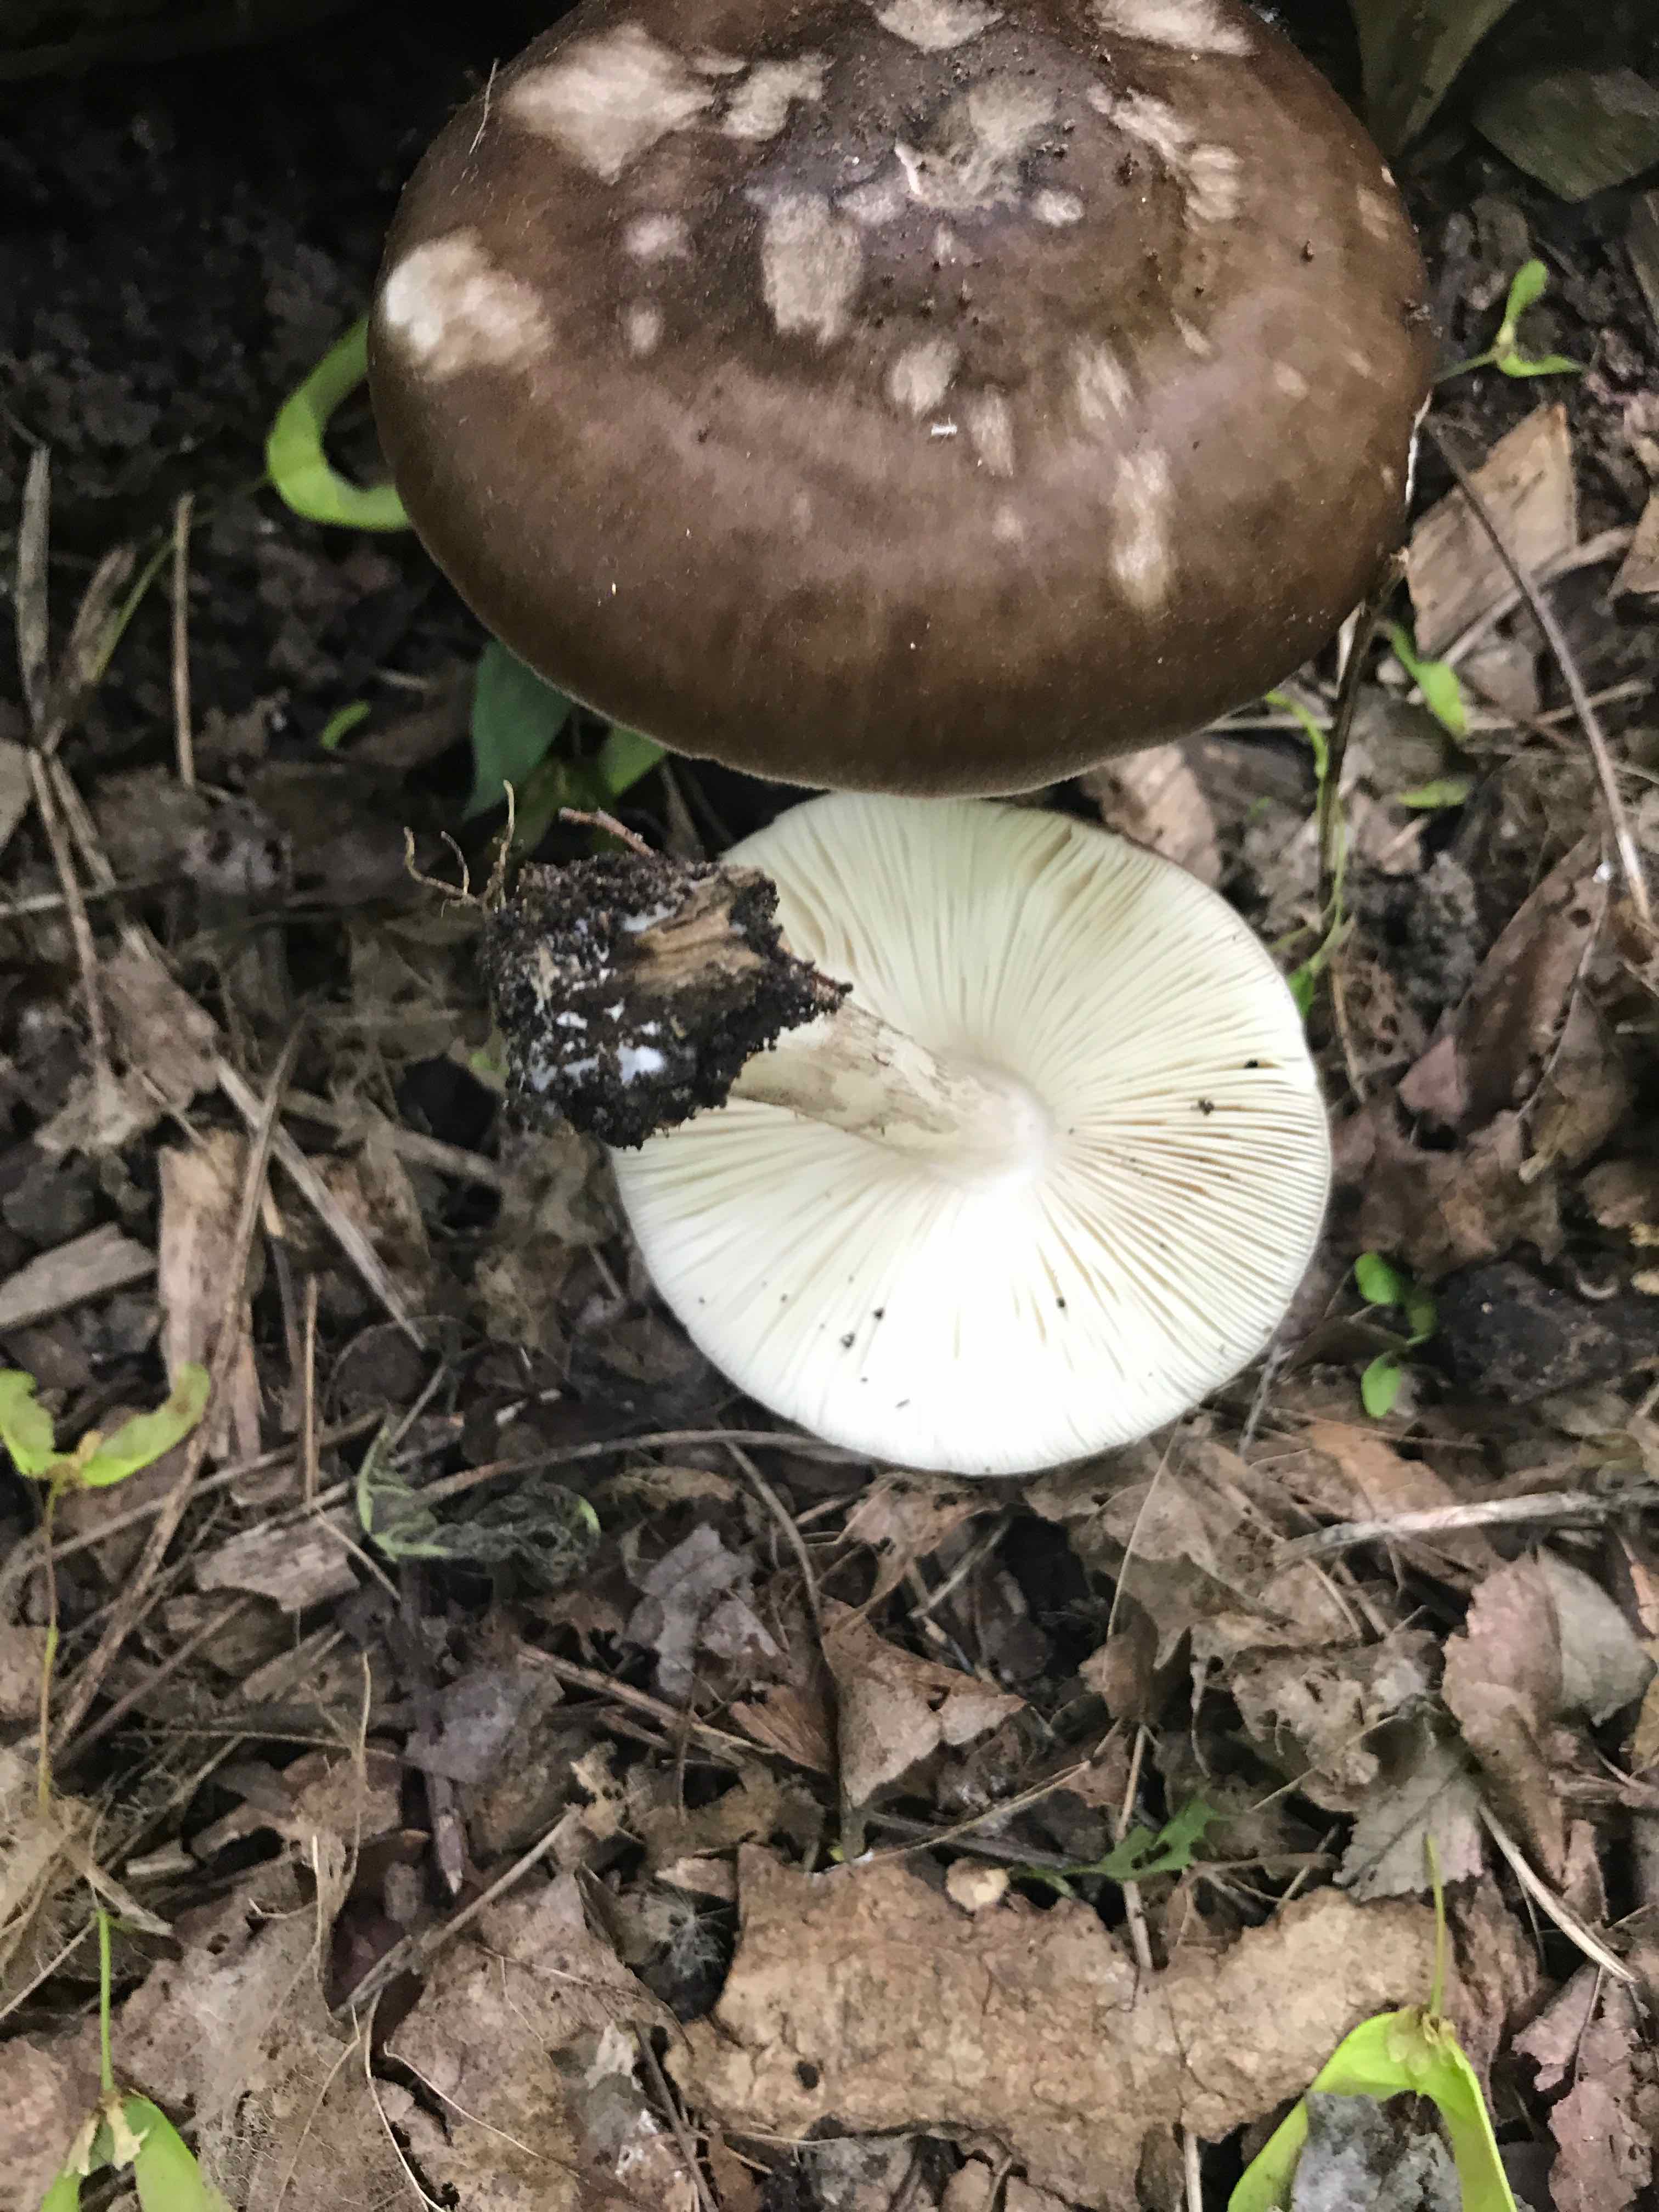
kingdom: Fungi
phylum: Basidiomycota
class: Agaricomycetes
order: Agaricales
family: Pluteaceae
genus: Pluteus
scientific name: Pluteus cervinus
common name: sodfarvet skærmhat
